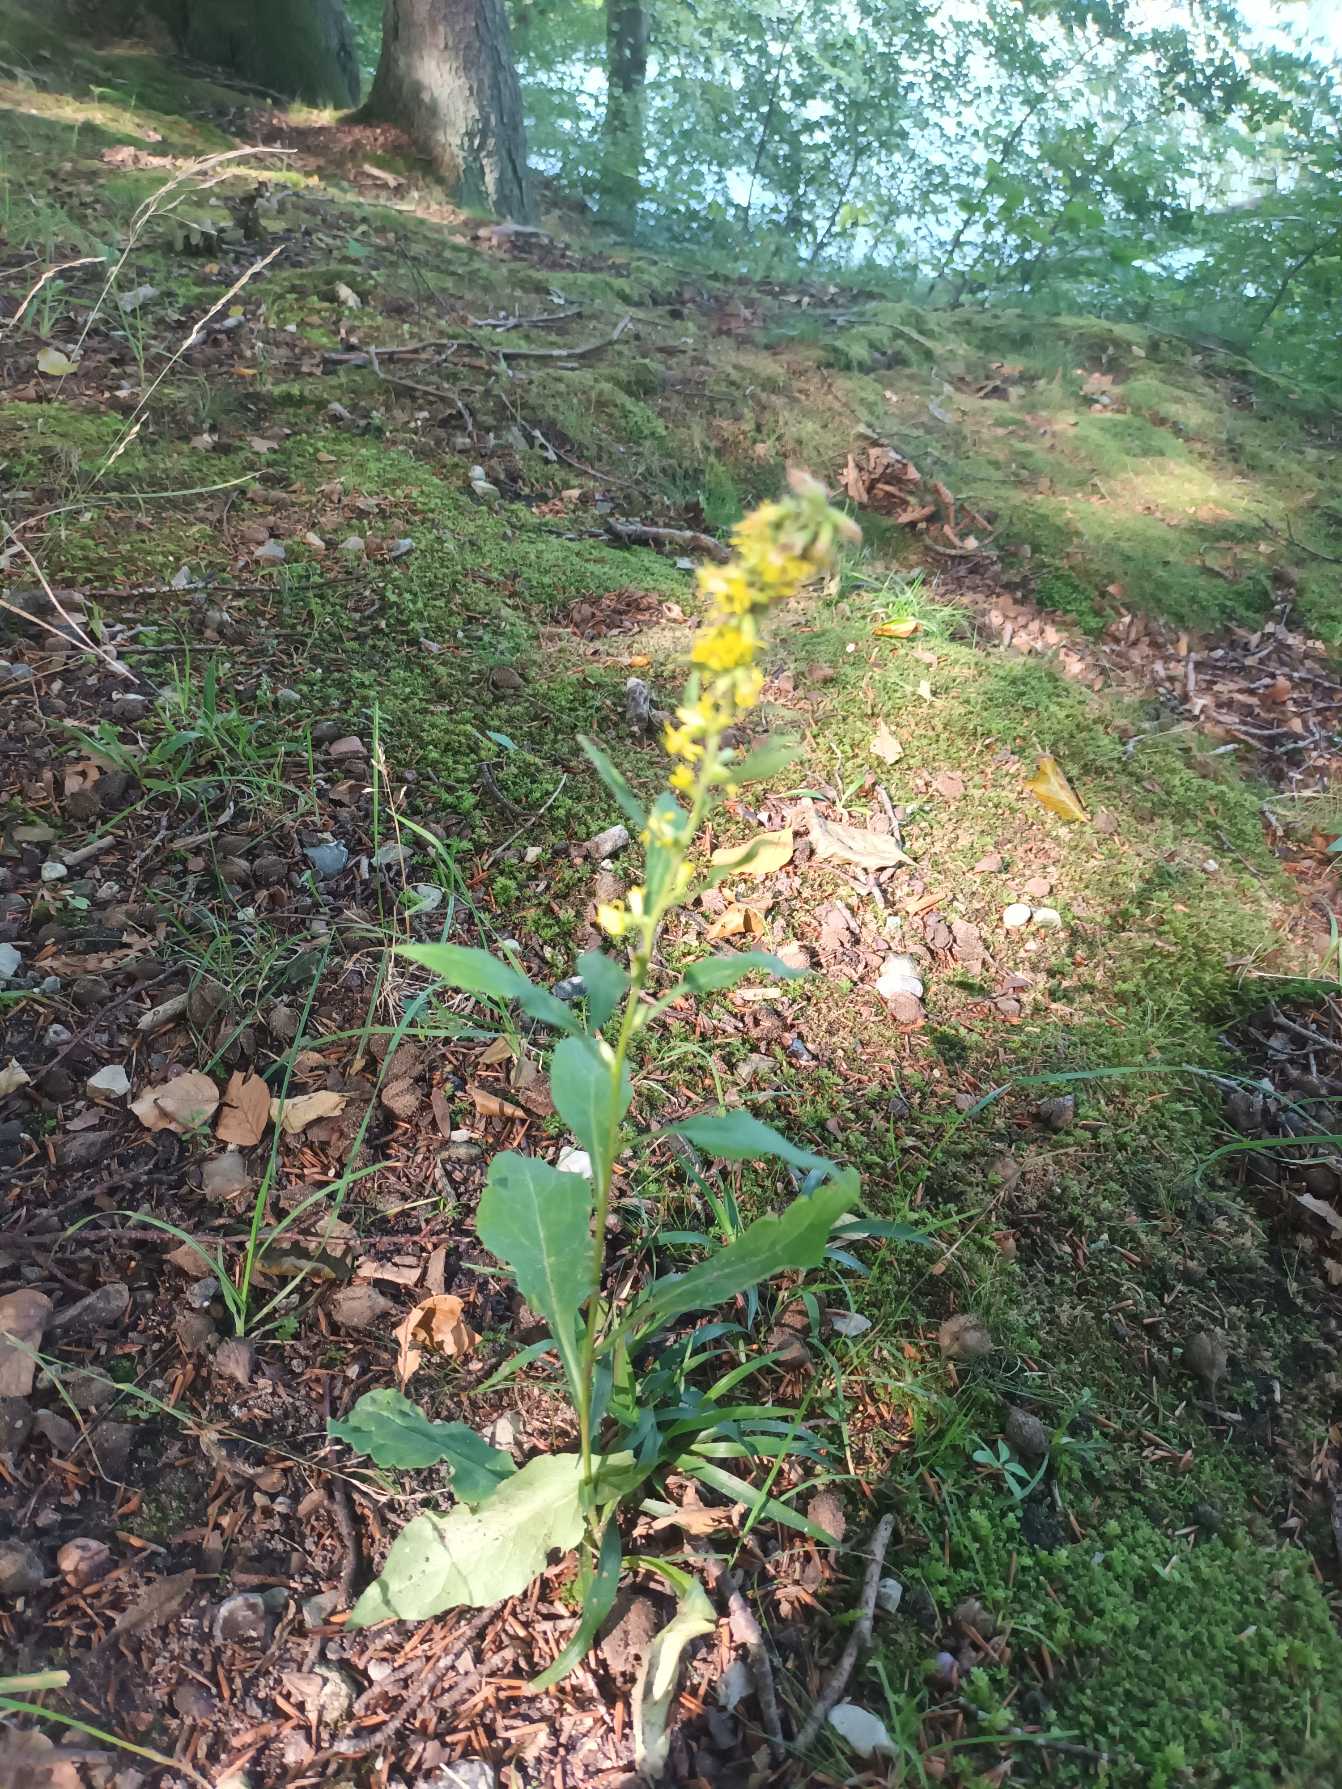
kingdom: Plantae
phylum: Tracheophyta
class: Magnoliopsida
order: Asterales
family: Asteraceae
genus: Solidago
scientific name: Solidago virgaurea
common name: Almindelig gyldenris
